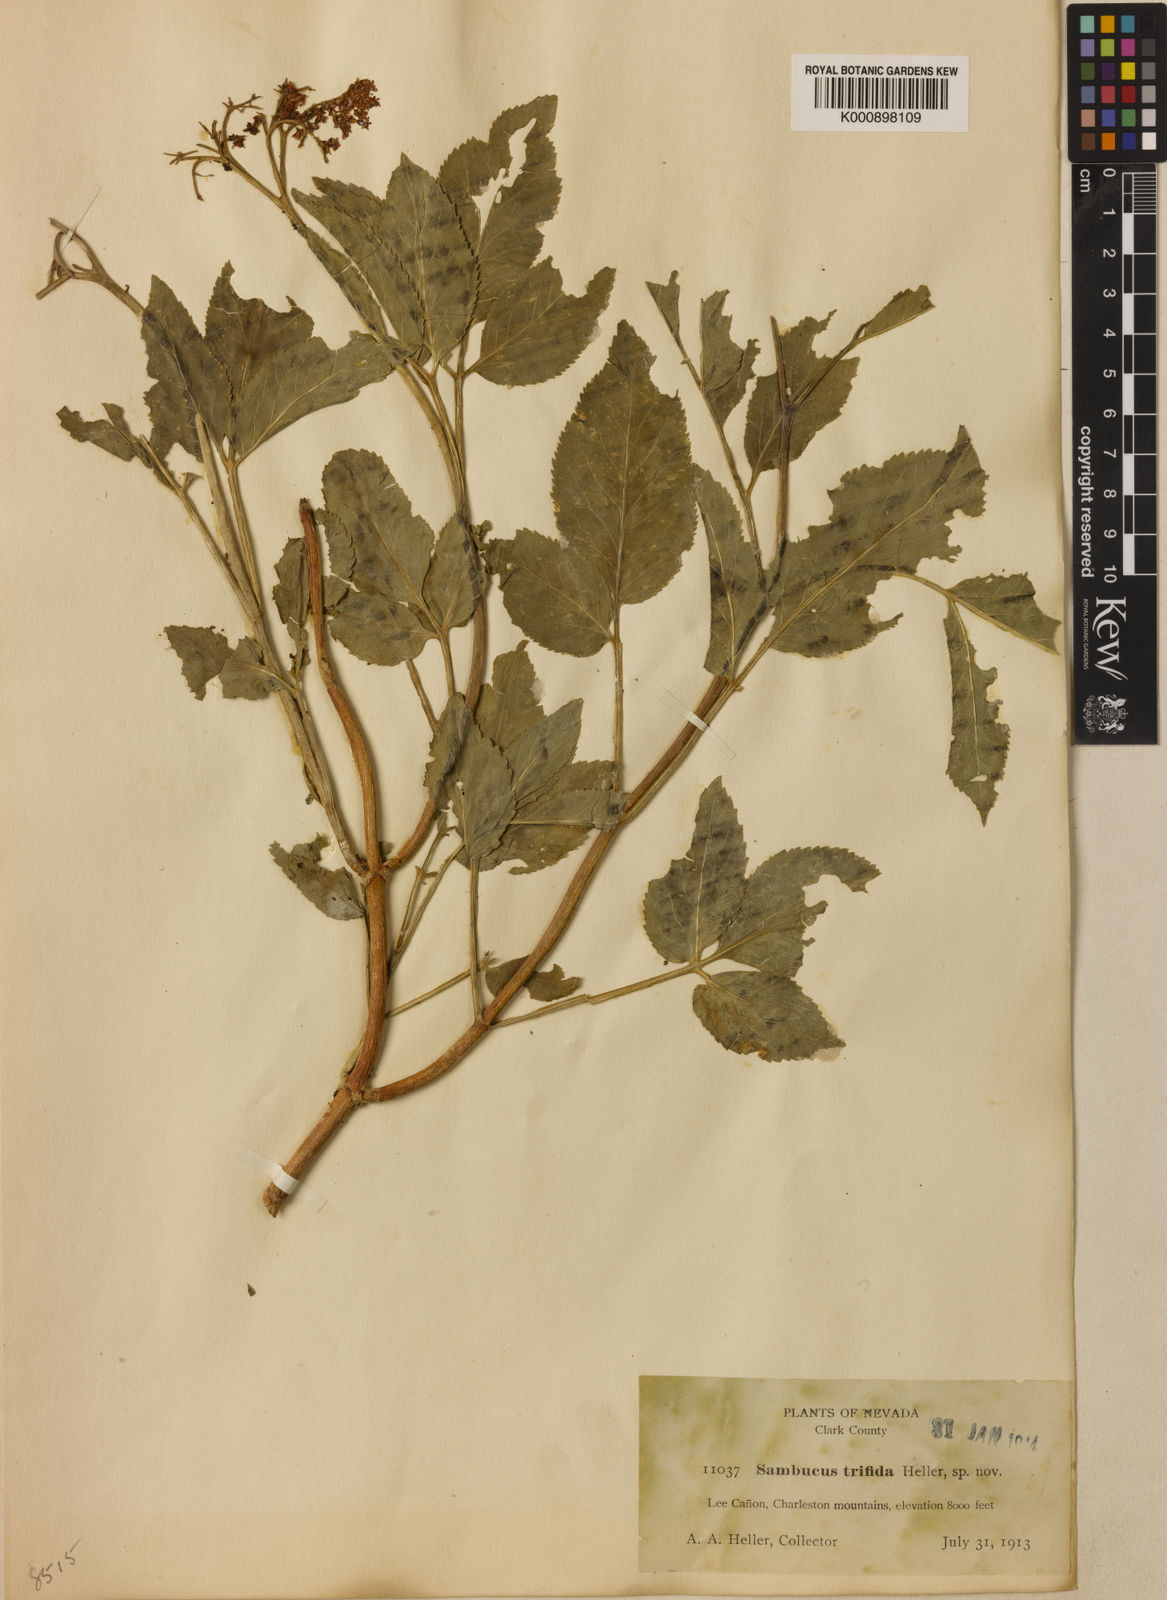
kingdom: Plantae
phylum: Tracheophyta
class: Magnoliopsida
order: Dipsacales
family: Viburnaceae
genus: Sambucus
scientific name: Sambucus
